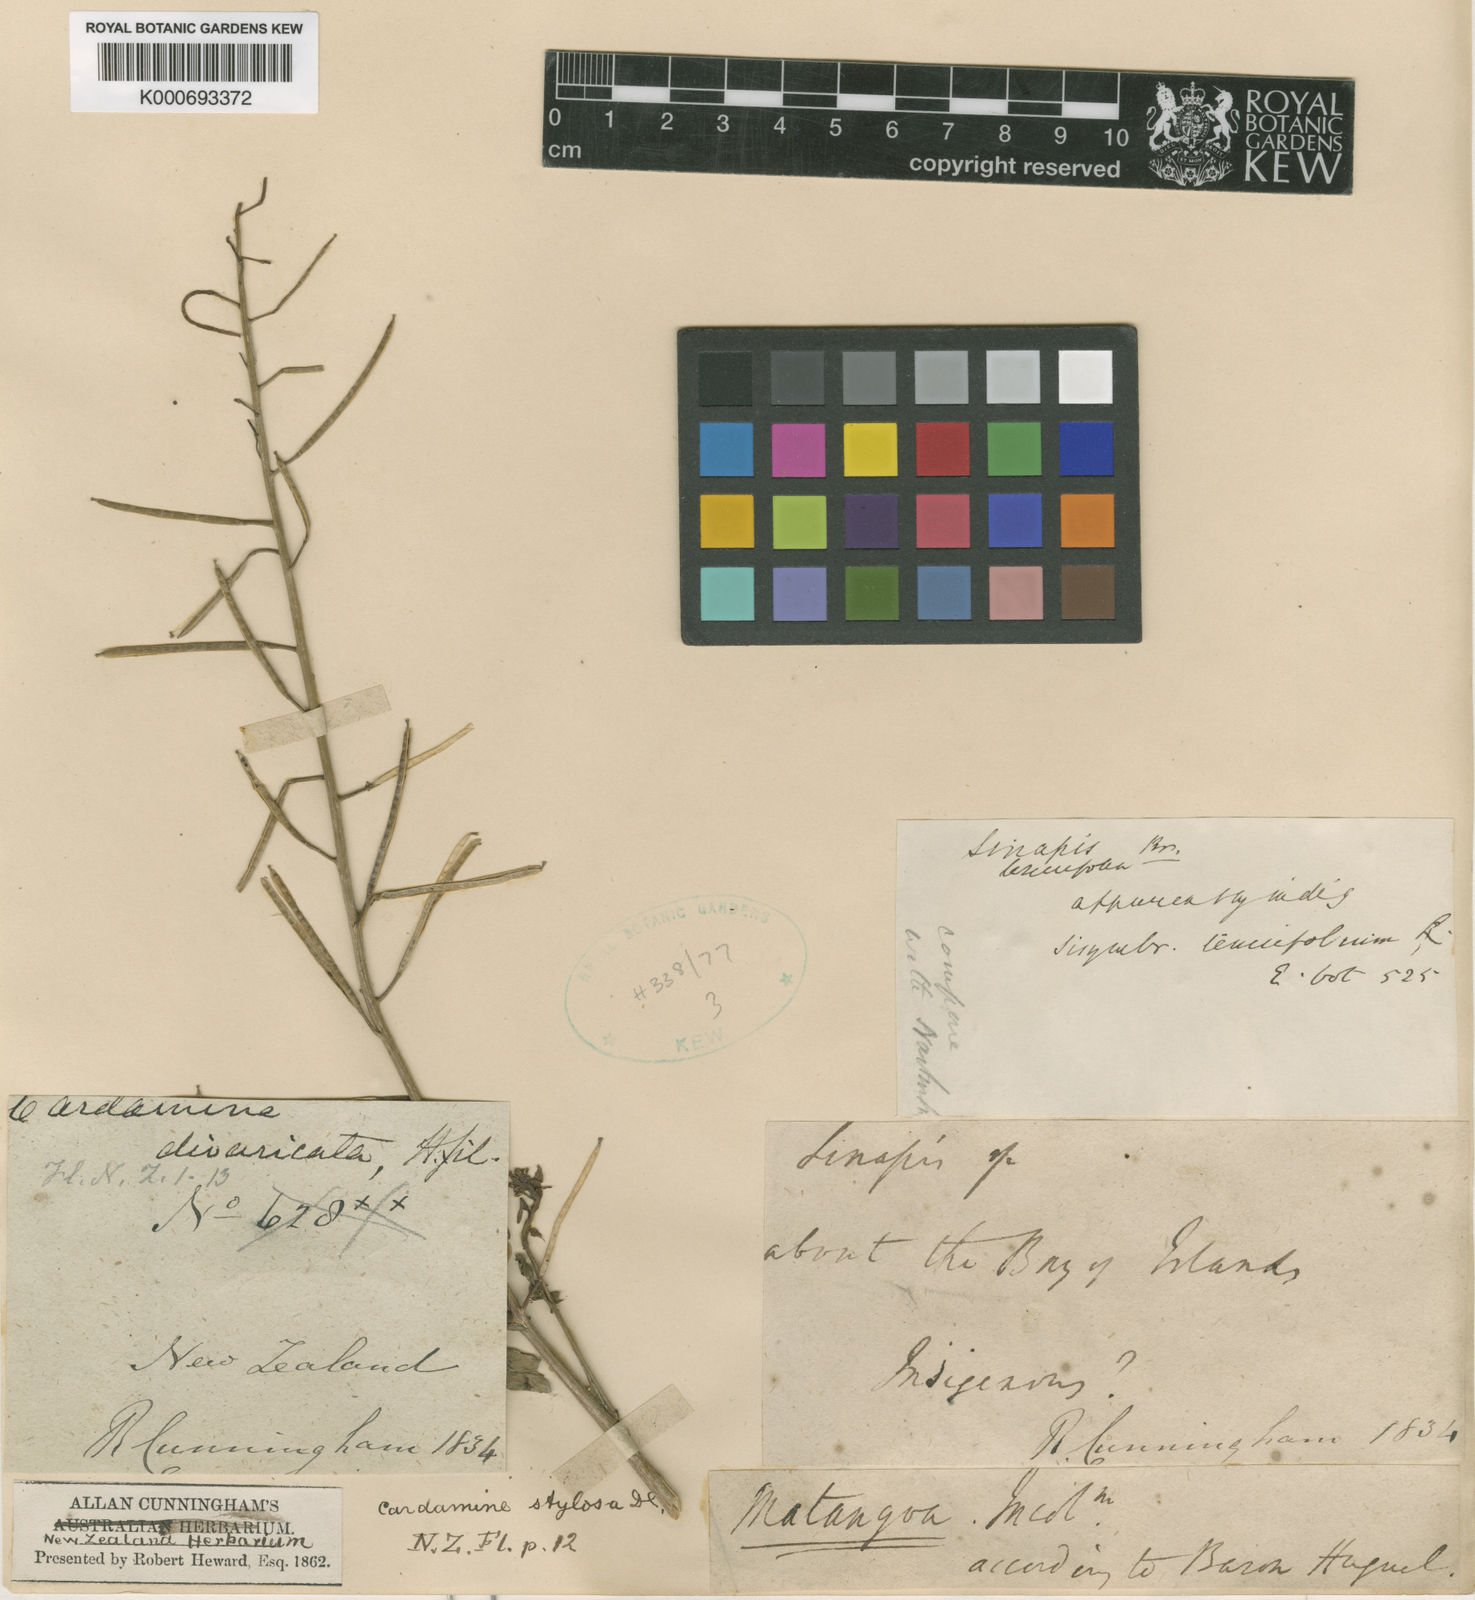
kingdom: Plantae
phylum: Tracheophyta
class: Magnoliopsida
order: Brassicales
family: Brassicaceae
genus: Rorippa
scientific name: Rorippa pyrenaica
